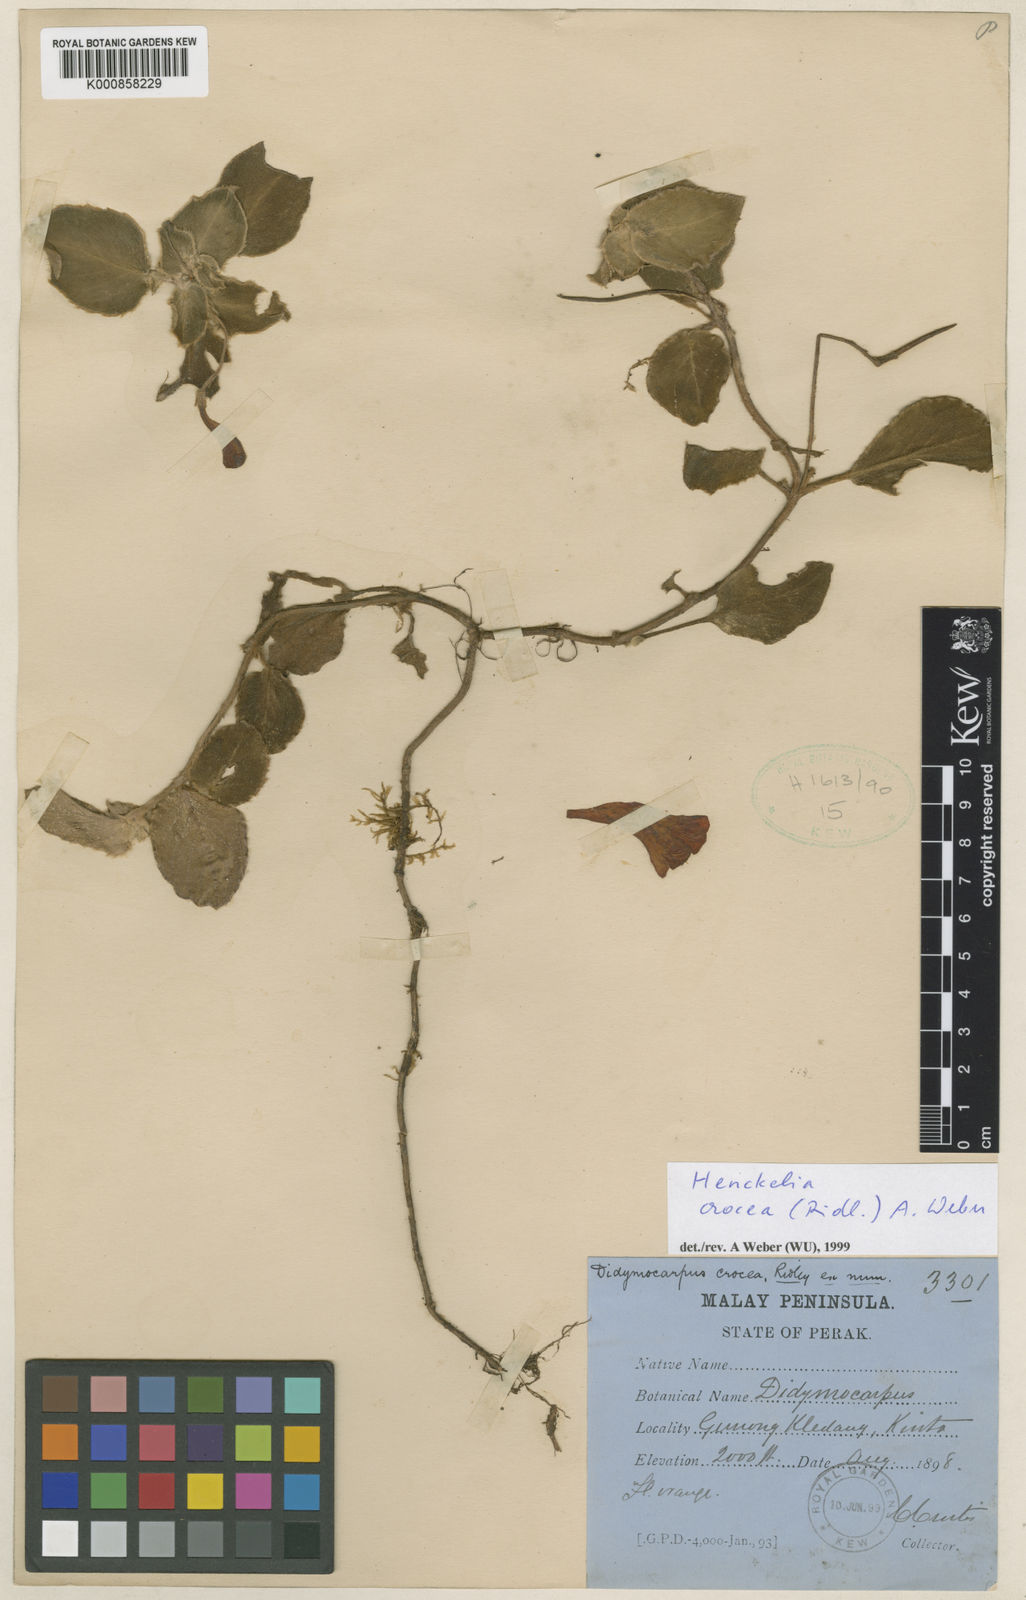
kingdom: Plantae
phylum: Tracheophyta
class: Magnoliopsida
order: Lamiales
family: Gesneriaceae
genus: Codonoboea
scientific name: Codonoboea crocea
